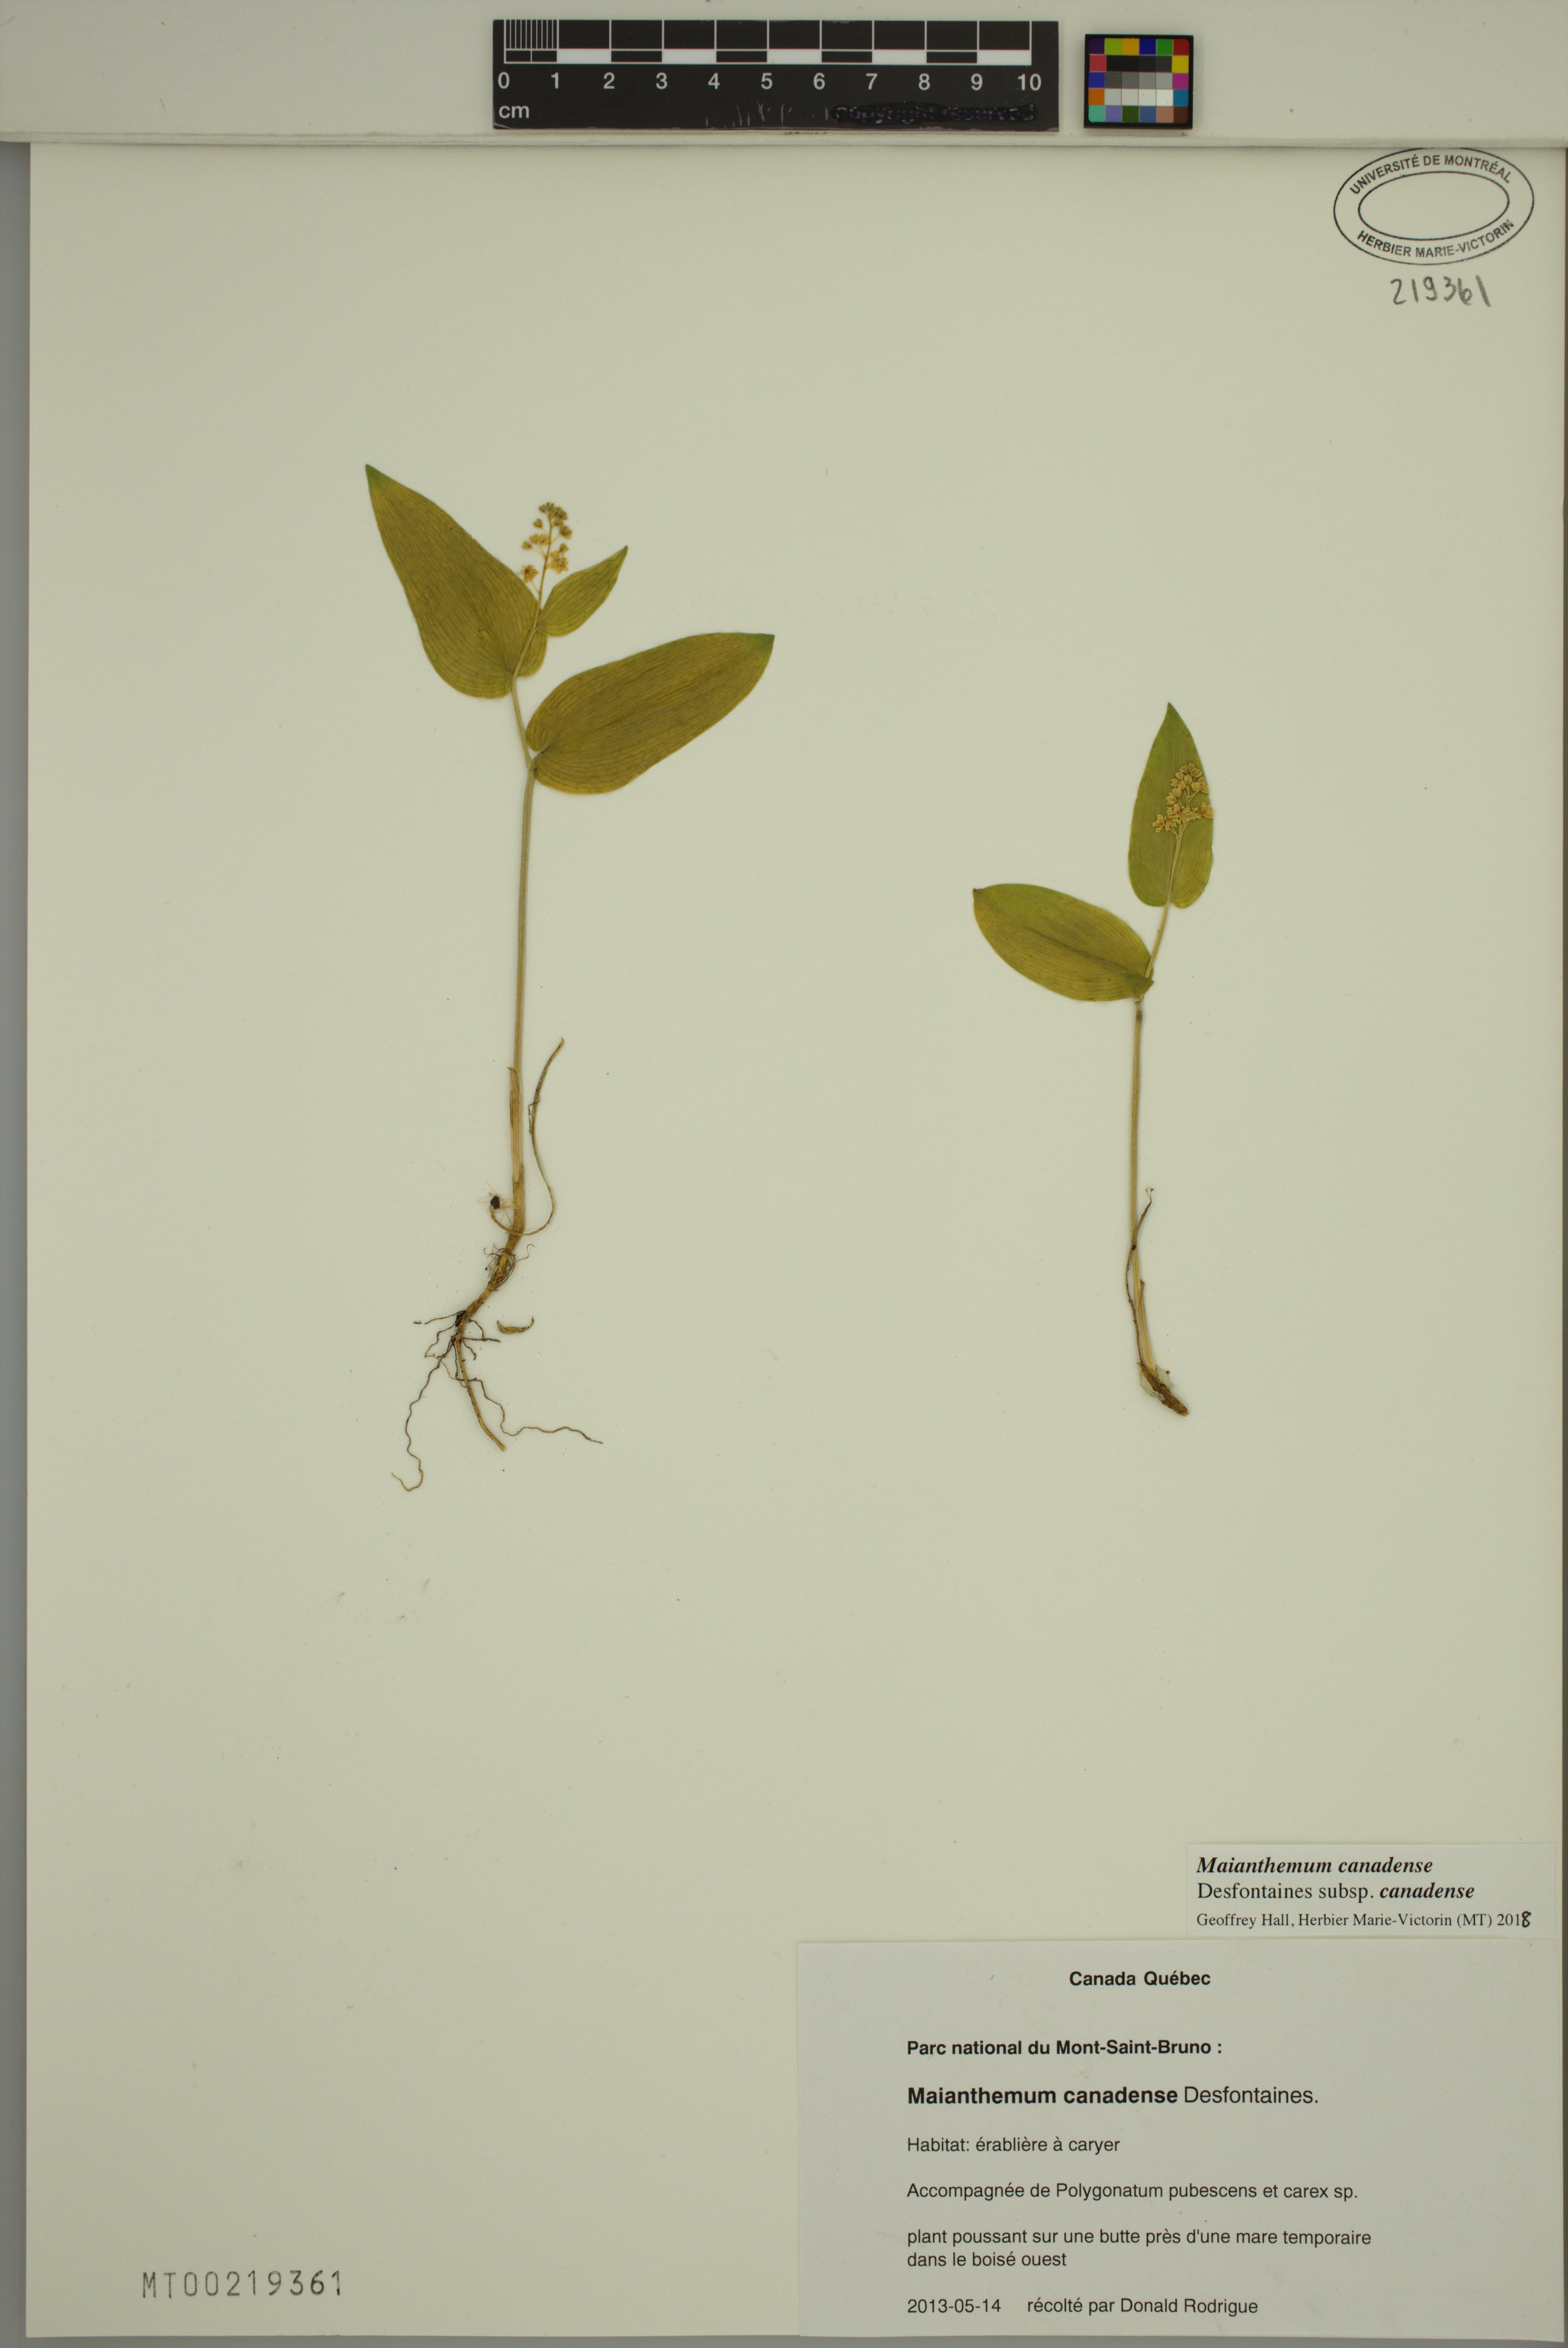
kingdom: Plantae
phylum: Tracheophyta
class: Liliopsida
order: Asparagales
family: Asparagaceae
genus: Maianthemum
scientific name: Maianthemum canadense
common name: False lily-of-the-valley
